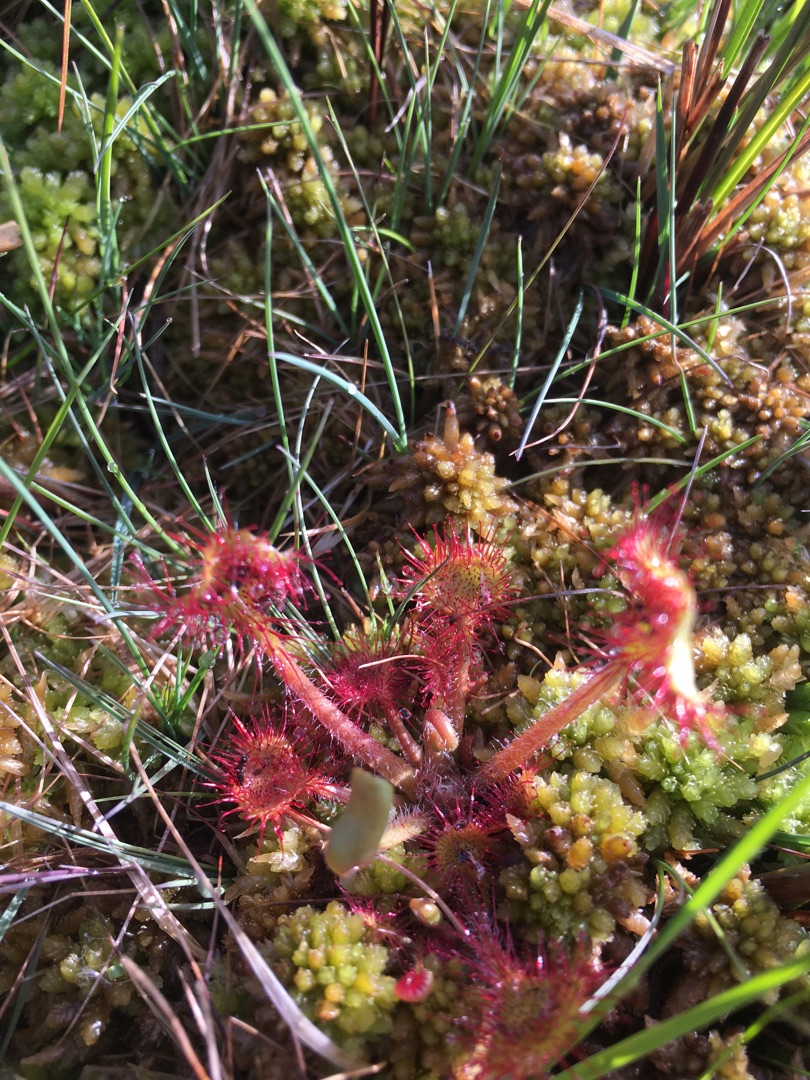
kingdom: Plantae
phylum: Tracheophyta
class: Magnoliopsida
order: Caryophyllales
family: Droseraceae
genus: Drosera
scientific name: Drosera rotundifolia
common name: Rundbladet soldug
